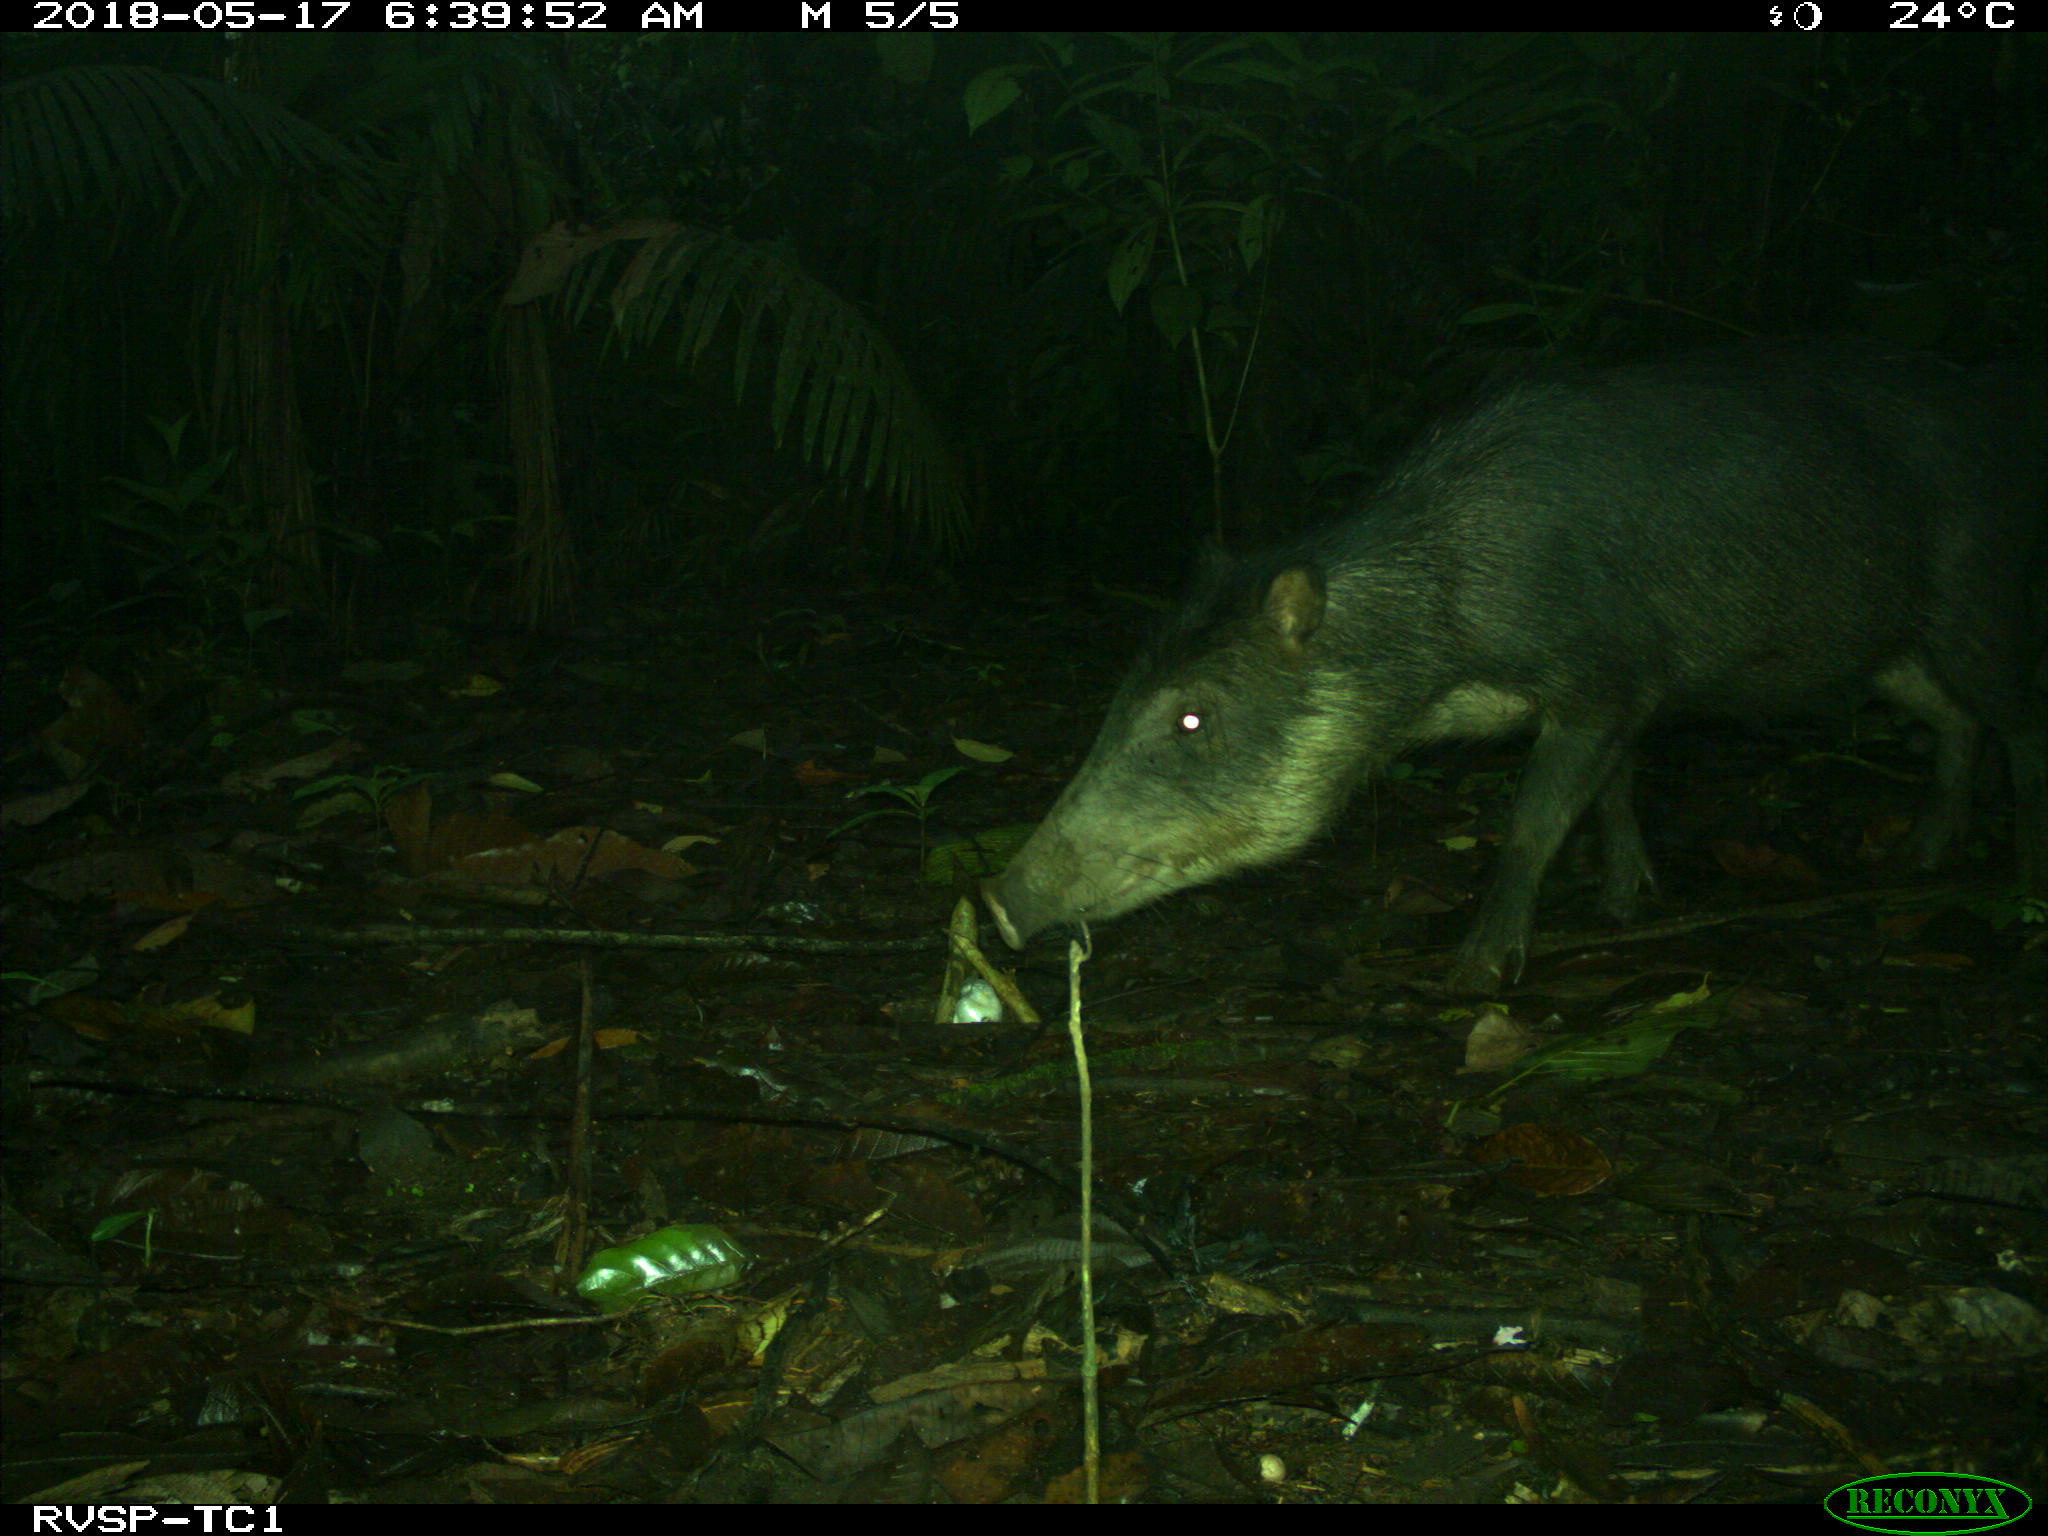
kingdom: Animalia
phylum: Chordata
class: Mammalia
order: Artiodactyla
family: Tayassuidae
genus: Tayassu
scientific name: Tayassu pecari
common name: White-lipped peccary
